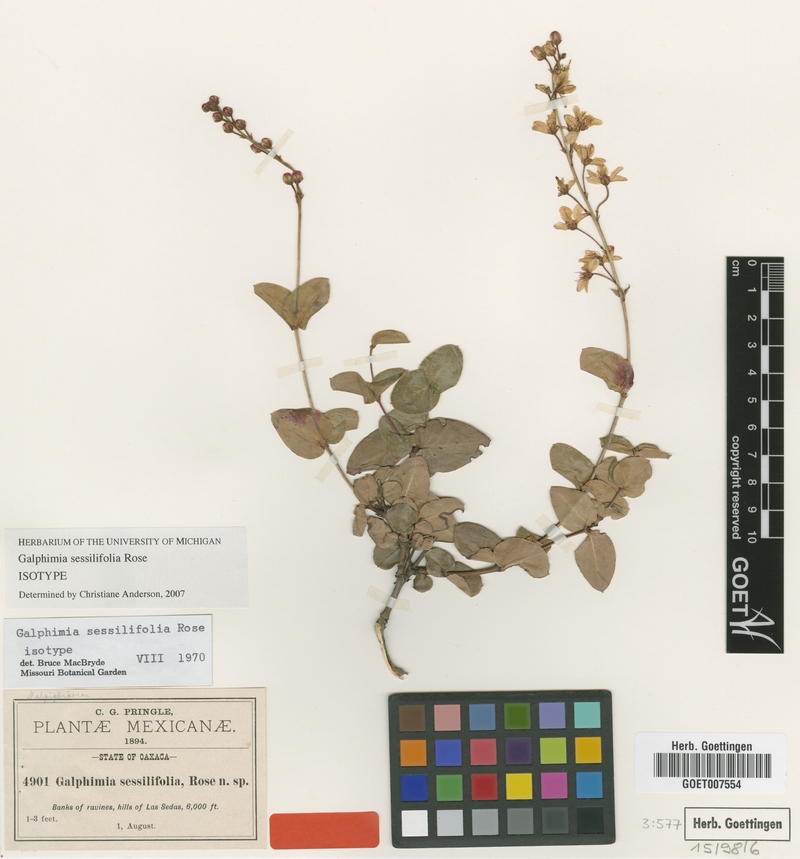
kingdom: Plantae
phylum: Tracheophyta
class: Magnoliopsida
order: Malpighiales
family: Malpighiaceae
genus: Galphimia
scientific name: Galphimia sessilifolia
